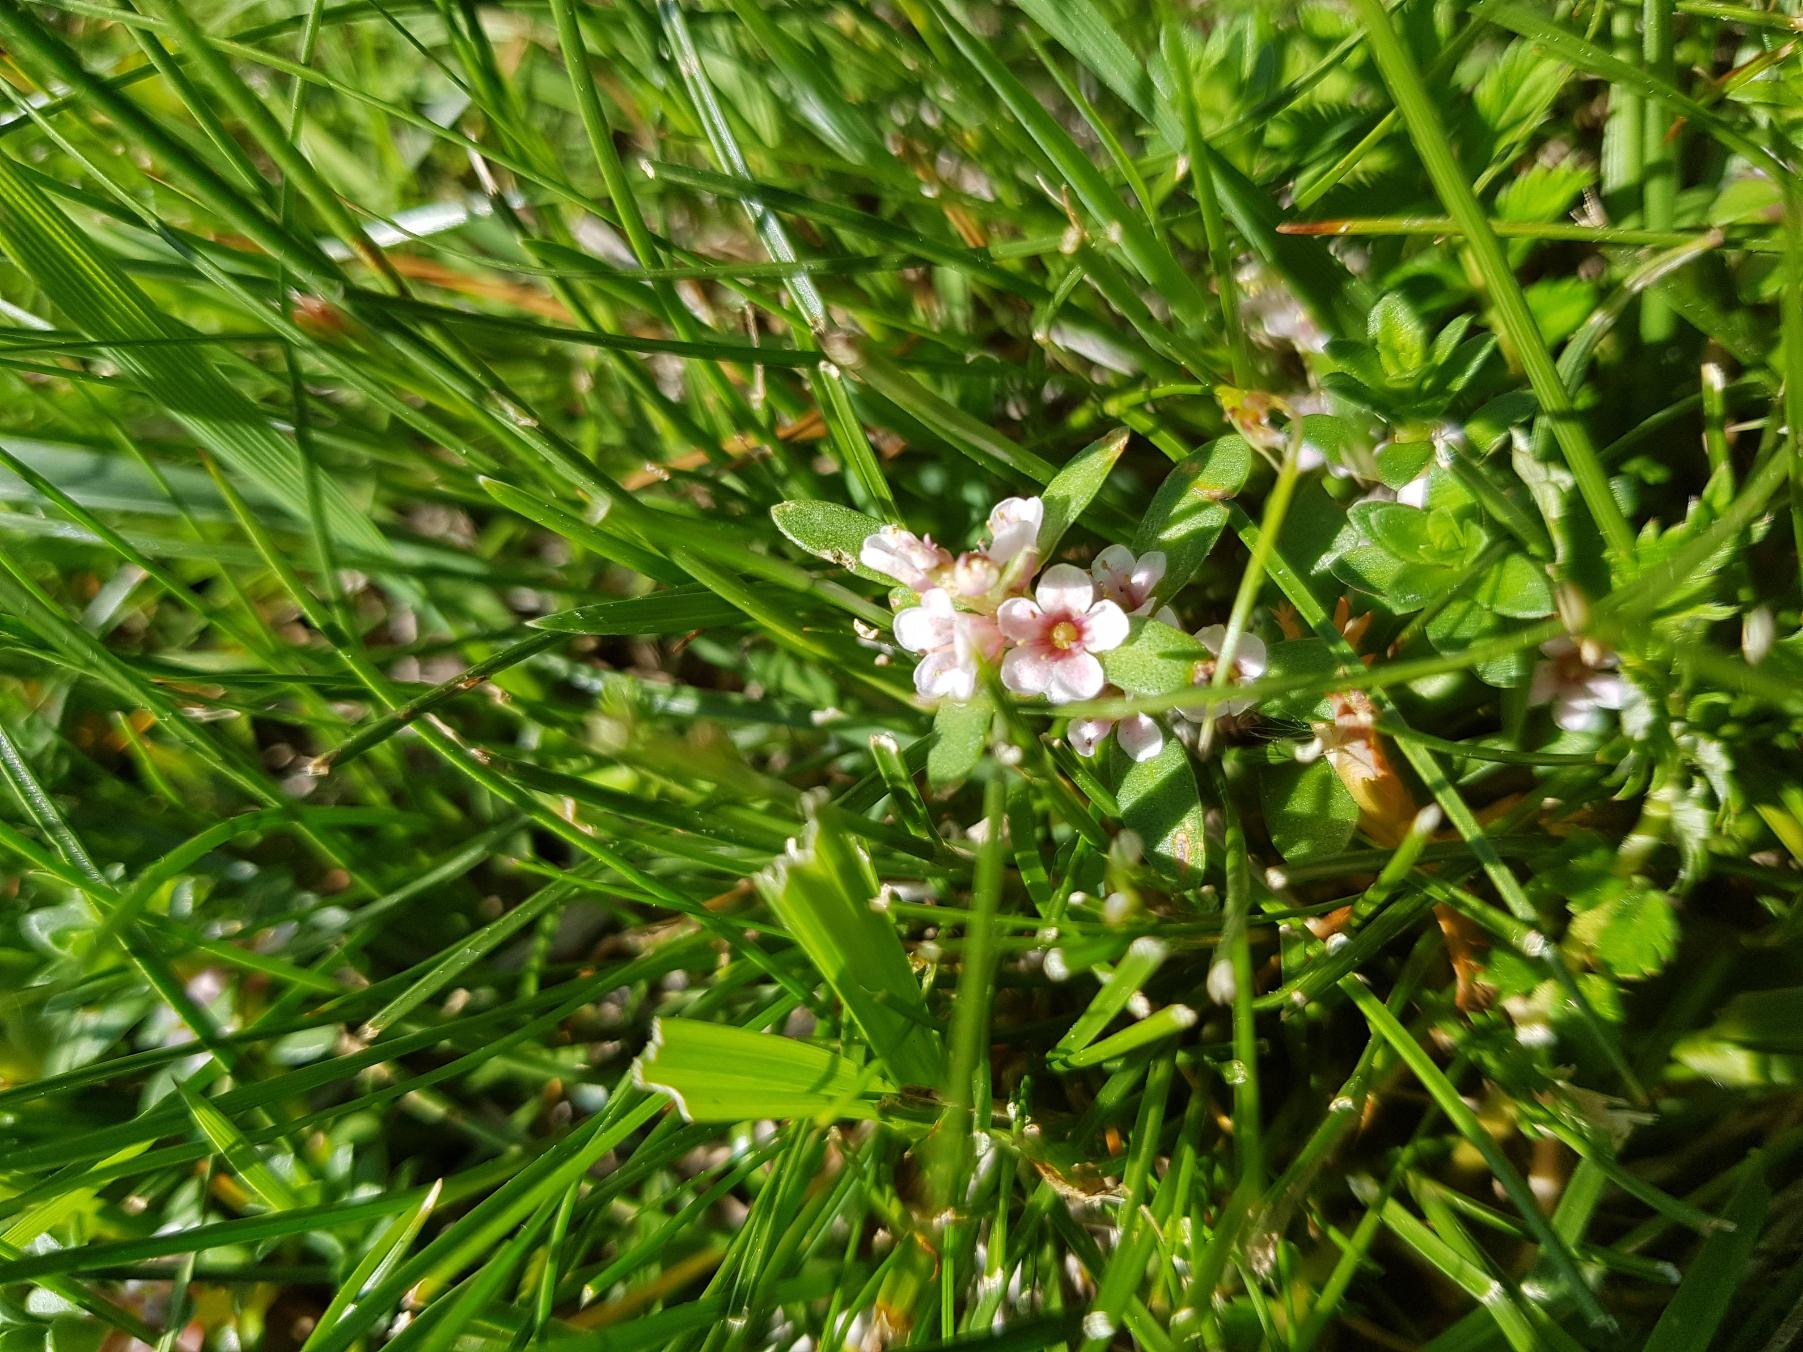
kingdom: Plantae
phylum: Tracheophyta
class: Magnoliopsida
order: Ericales
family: Primulaceae
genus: Lysimachia
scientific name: Lysimachia maritima
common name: Sandkryb
